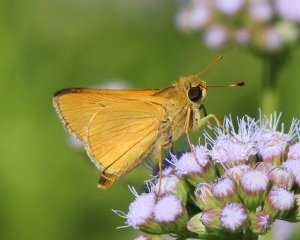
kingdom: Animalia
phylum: Arthropoda
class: Insecta
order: Lepidoptera
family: Hesperiidae
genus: Mellana
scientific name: Mellana eulogius
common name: Common Mellana
